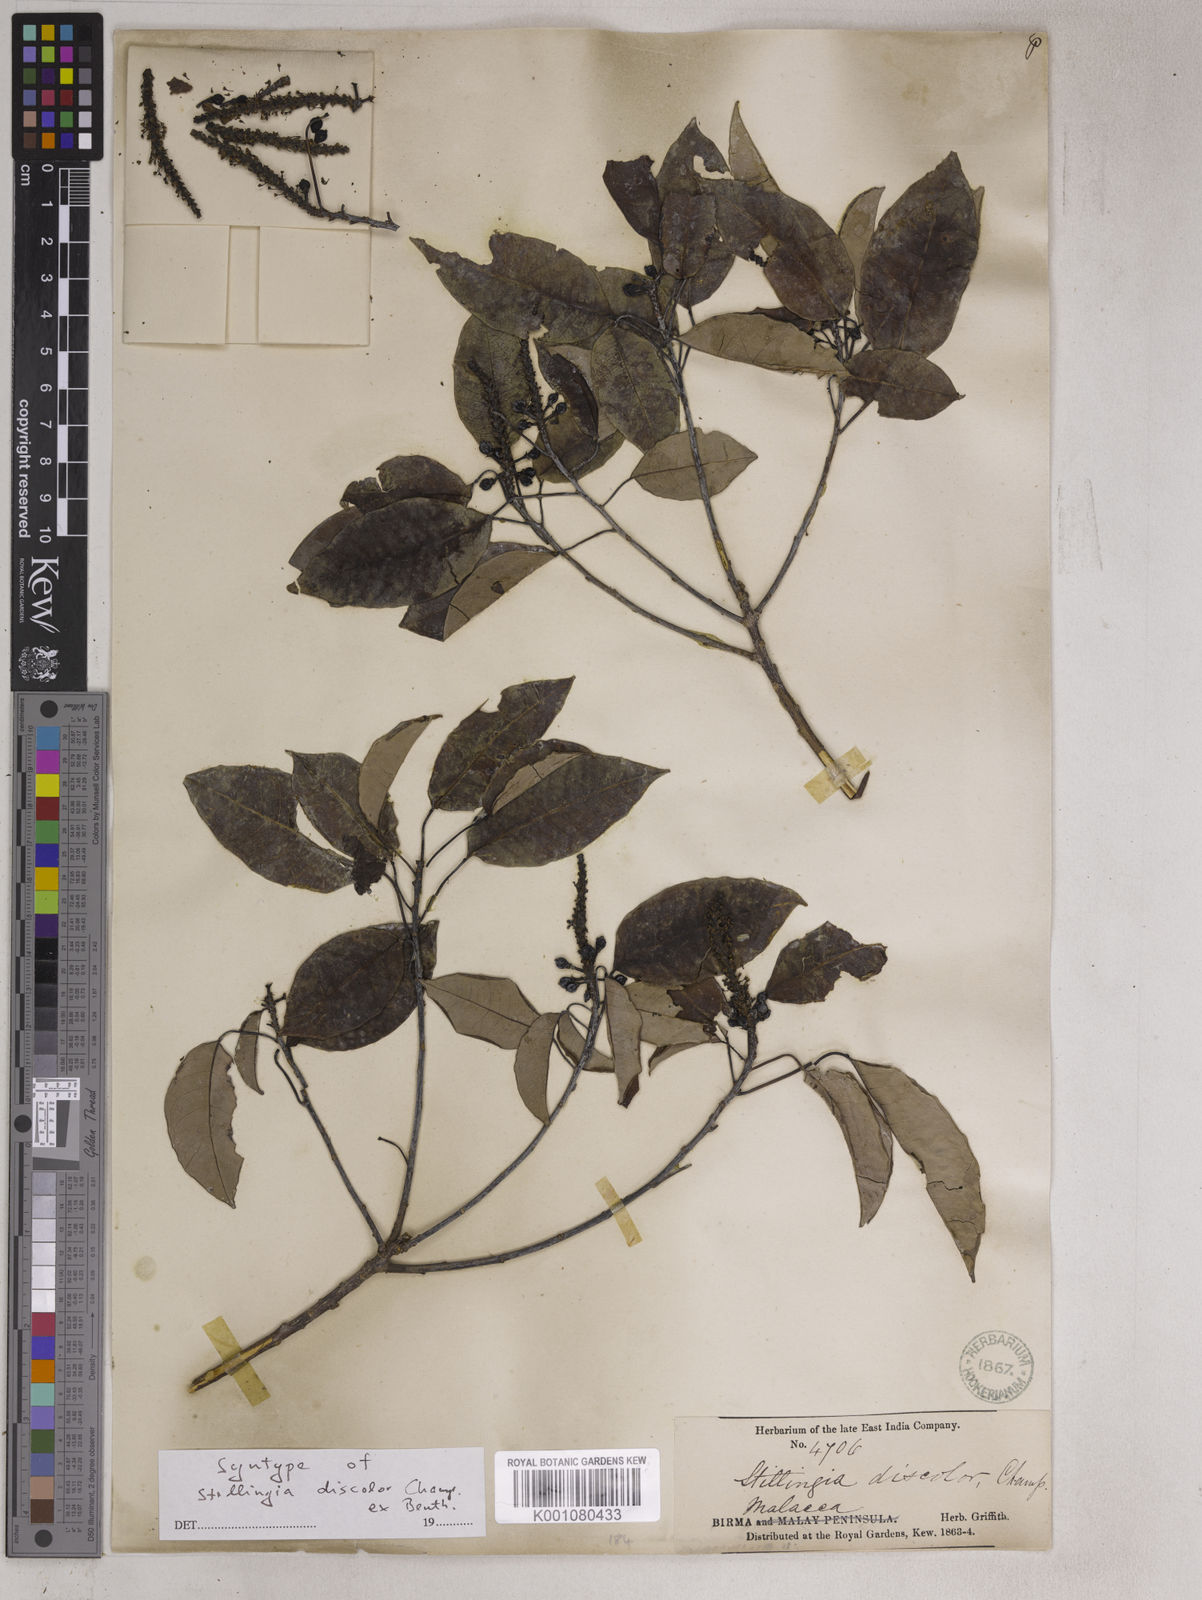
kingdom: Plantae
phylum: Tracheophyta
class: Magnoliopsida
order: Malpighiales
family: Euphorbiaceae
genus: Triadica
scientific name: Triadica cochinchinensis
